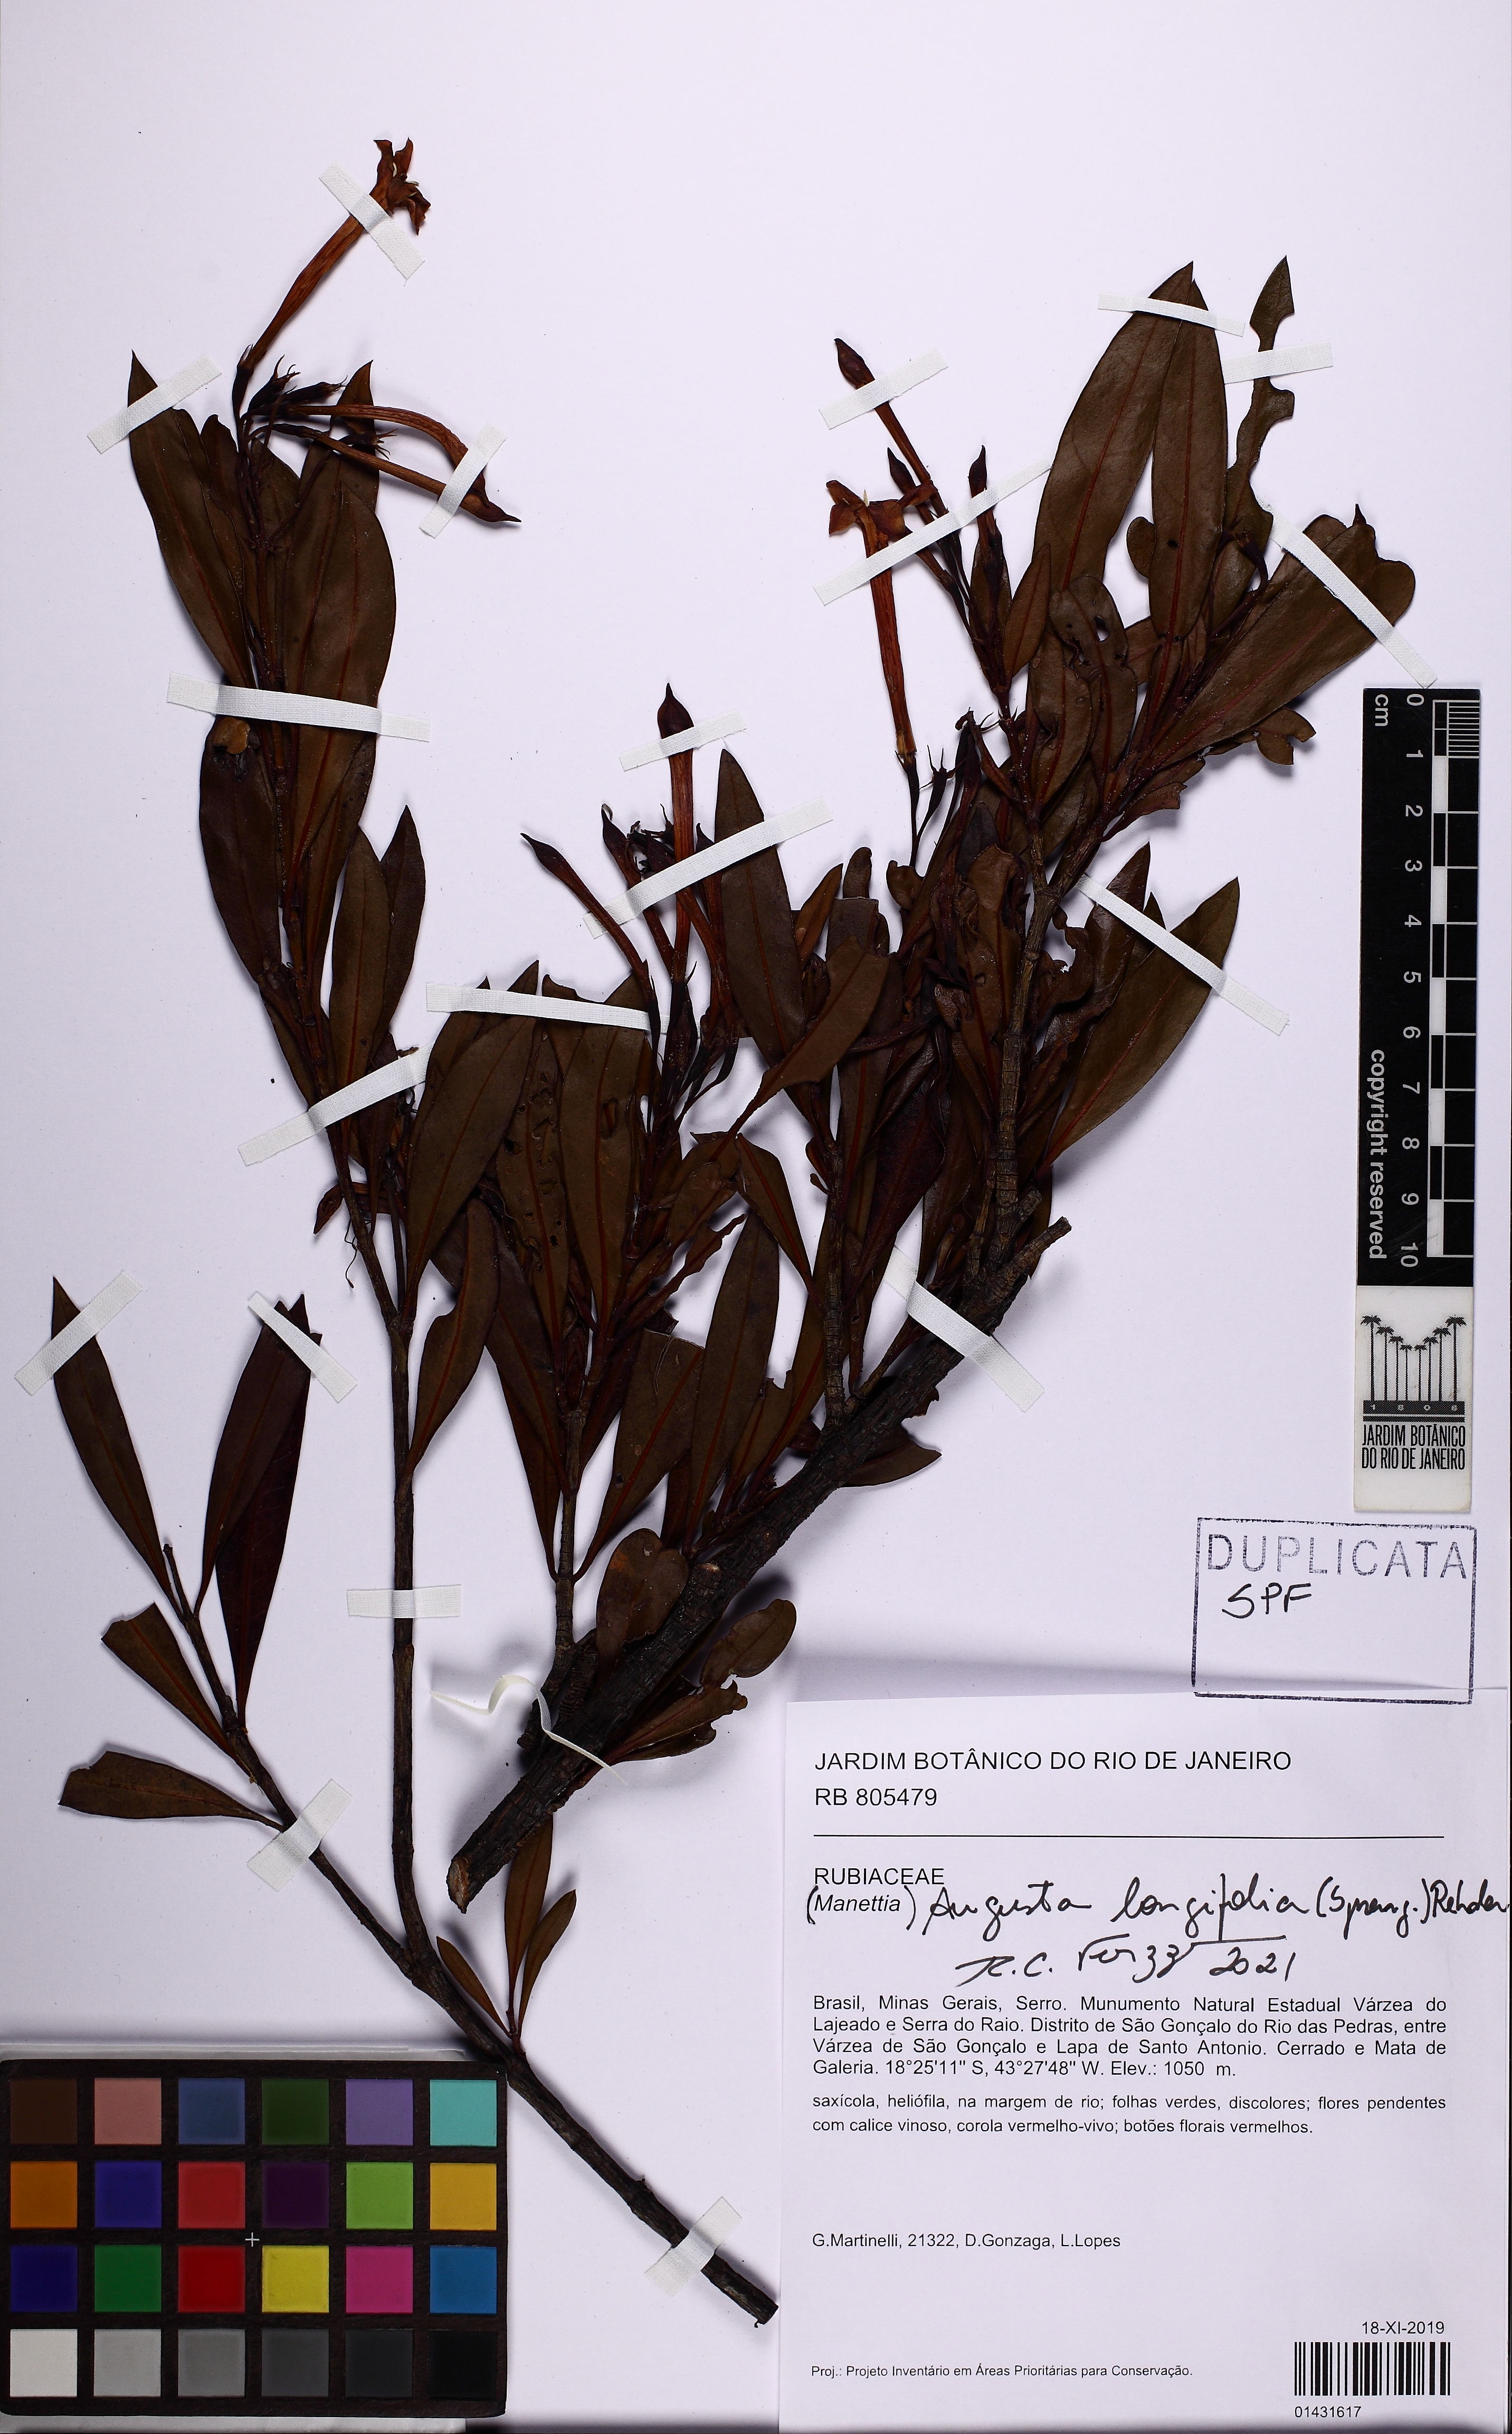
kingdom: Plantae
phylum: Tracheophyta
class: Magnoliopsida
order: Gentianales
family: Rubiaceae
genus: Augusta
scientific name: Augusta longifolia
